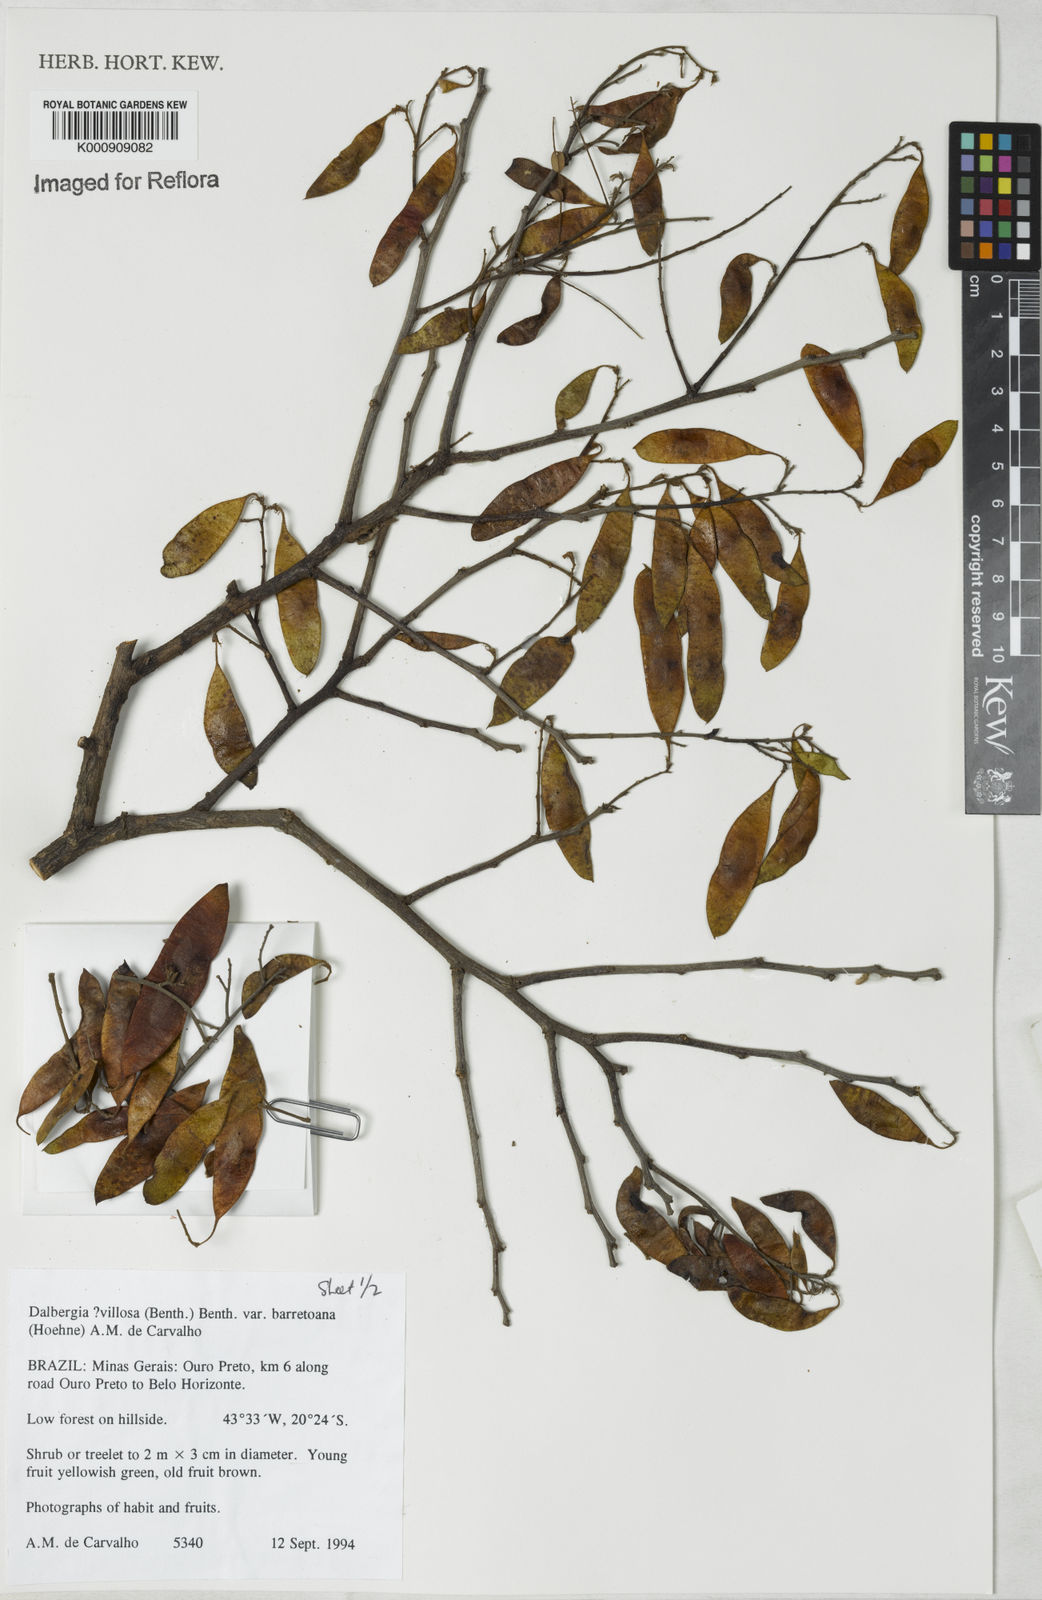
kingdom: Plantae
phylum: Tracheophyta
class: Magnoliopsida
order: Fabales
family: Fabaceae
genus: Dalbergia
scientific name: Dalbergia villosa
